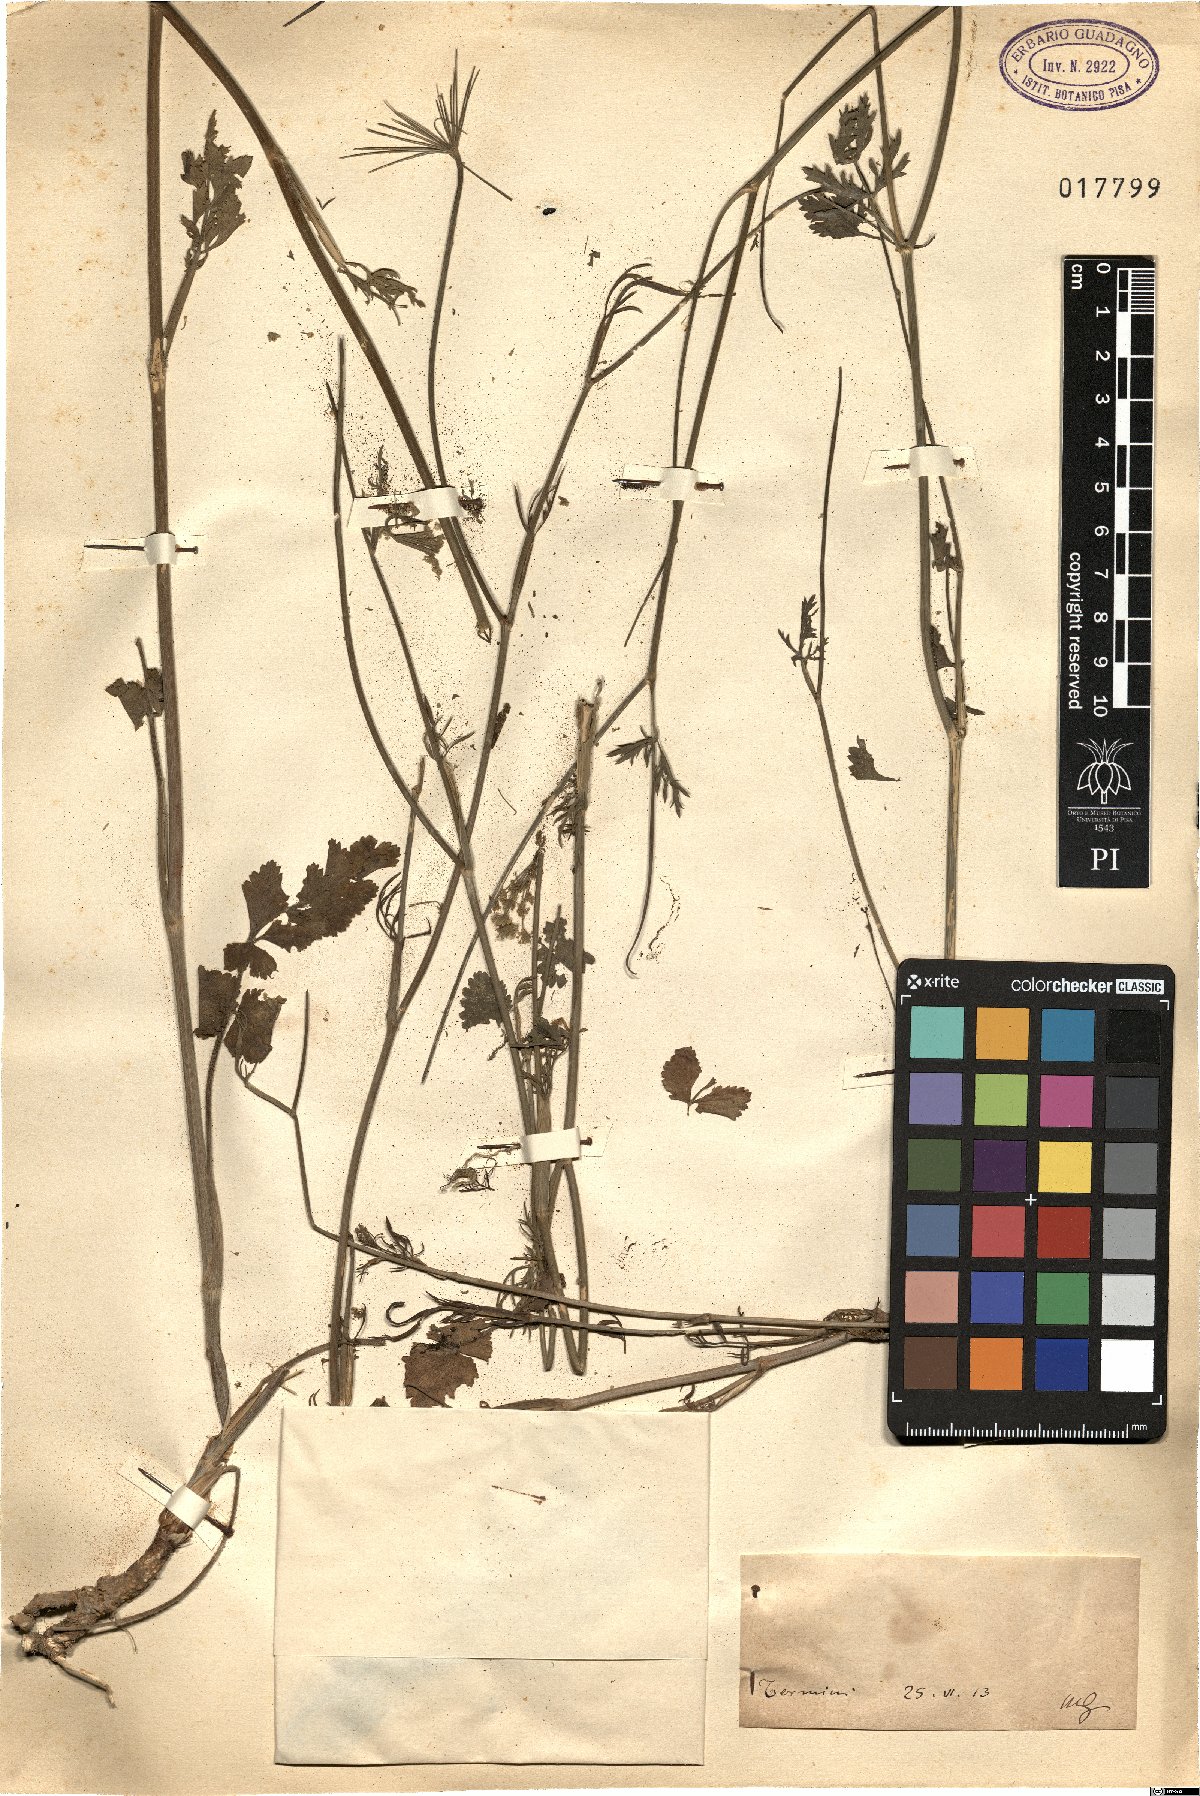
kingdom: Plantae
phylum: Tracheophyta
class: Magnoliopsida
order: Apiales
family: Apiaceae
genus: Pimpinella
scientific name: Pimpinella
